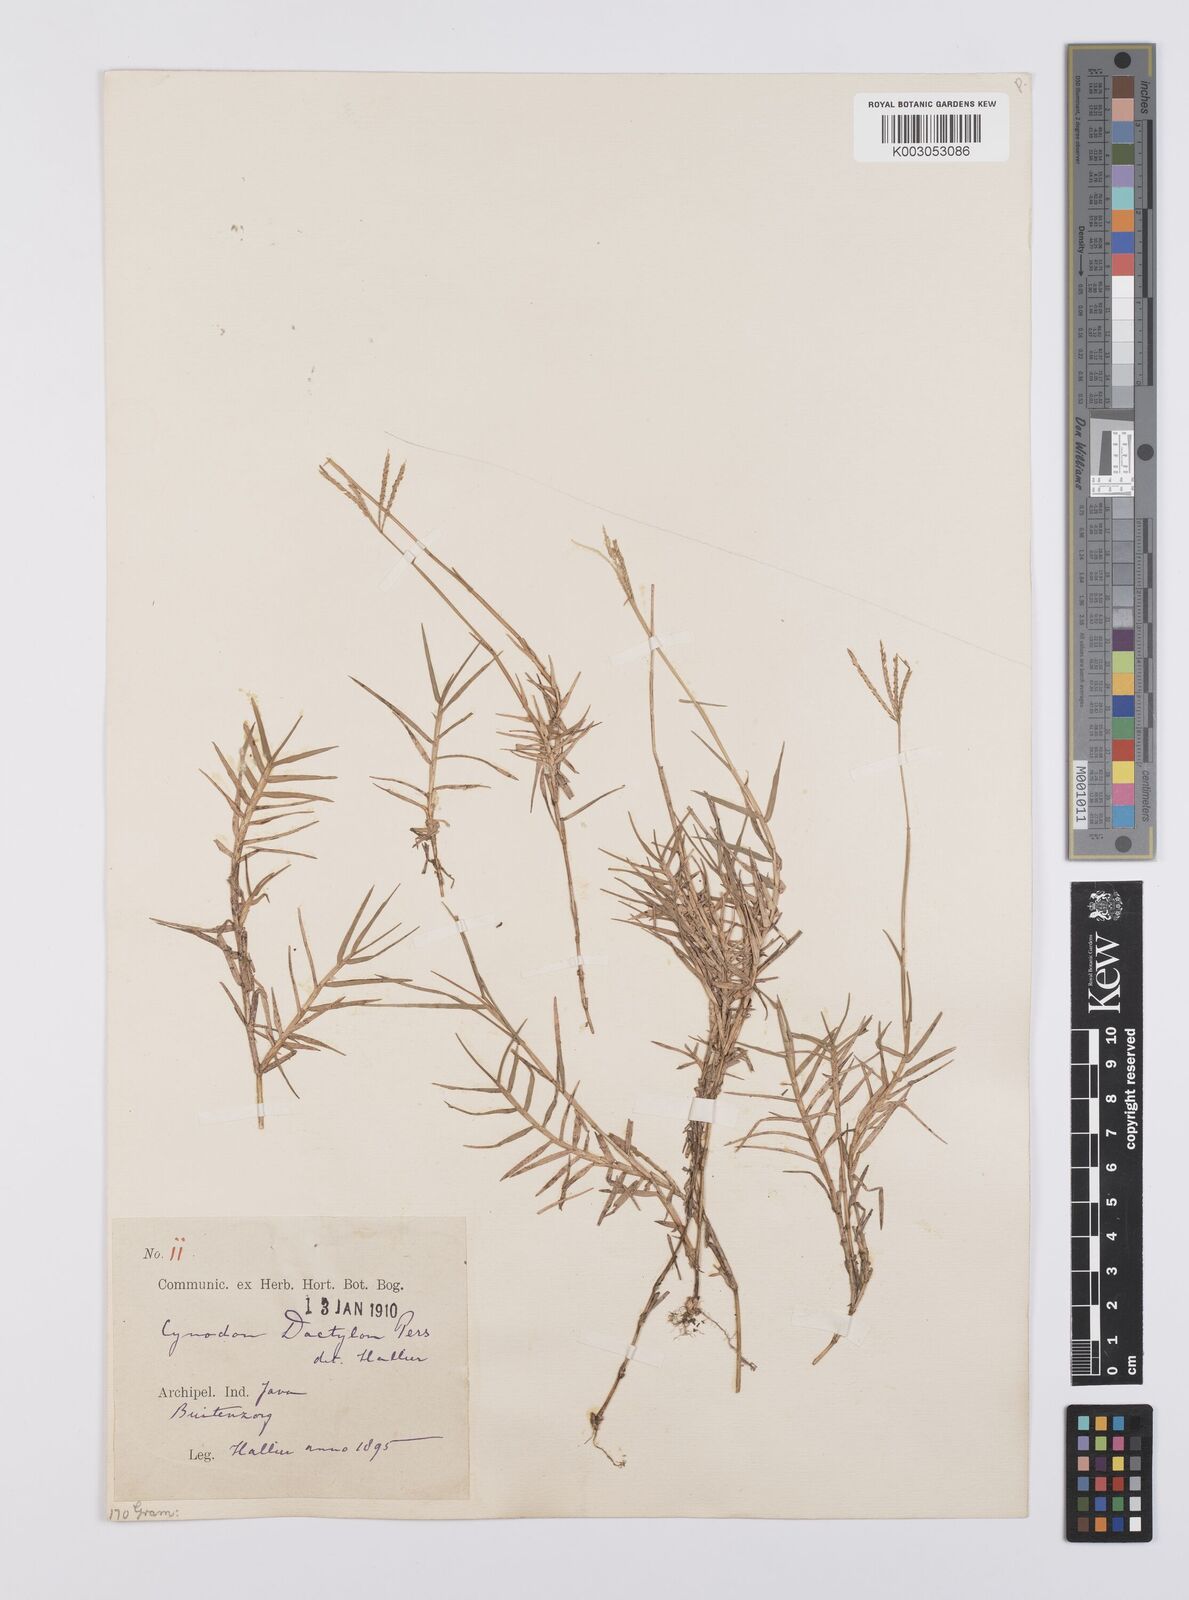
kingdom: Plantae
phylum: Tracheophyta
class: Liliopsida
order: Poales
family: Poaceae
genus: Cynodon
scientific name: Cynodon dactylon
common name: Bermuda grass
